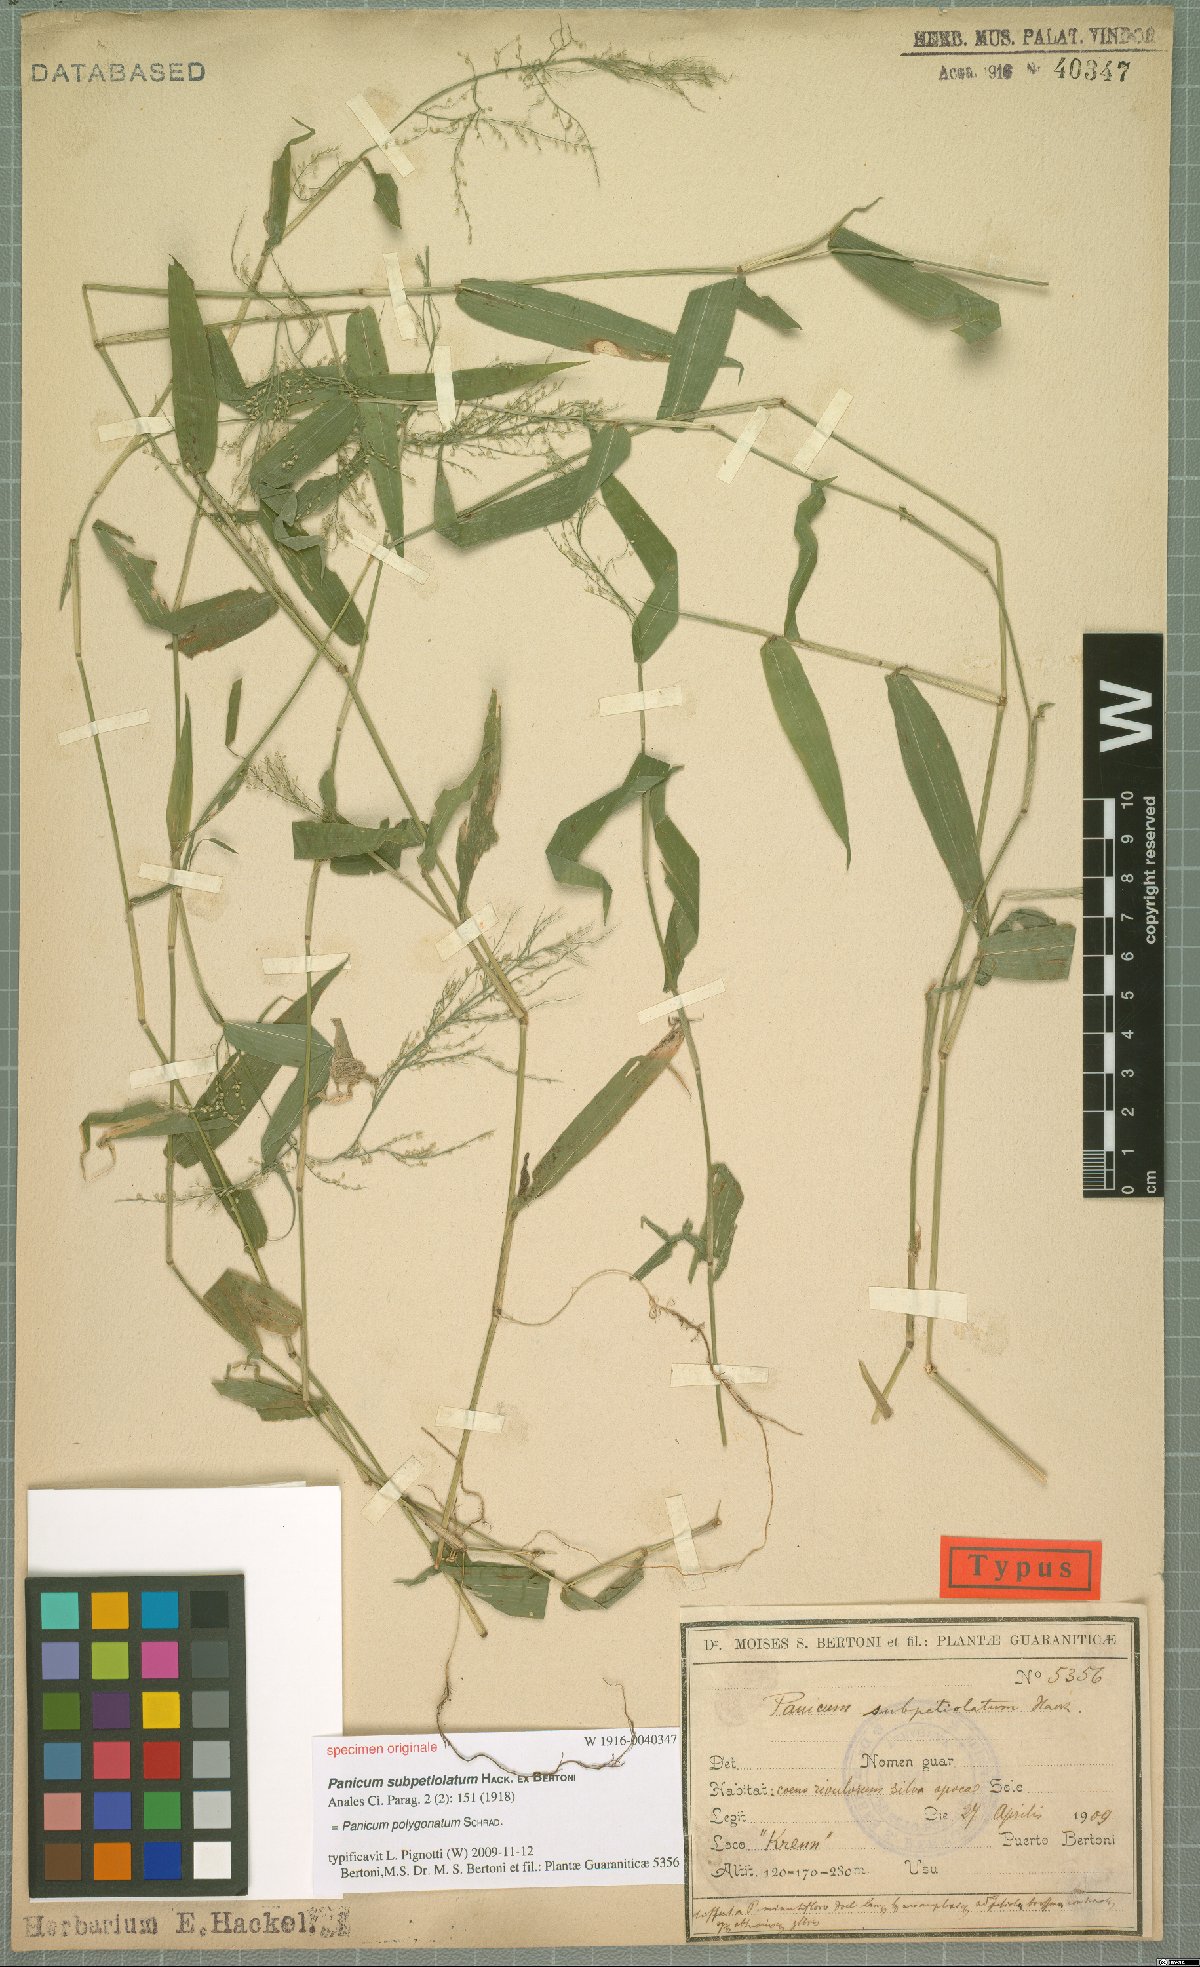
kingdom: Plantae
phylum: Tracheophyta
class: Liliopsida
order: Poales
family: Poaceae
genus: Rugoloa
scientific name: Rugoloa polygonata
